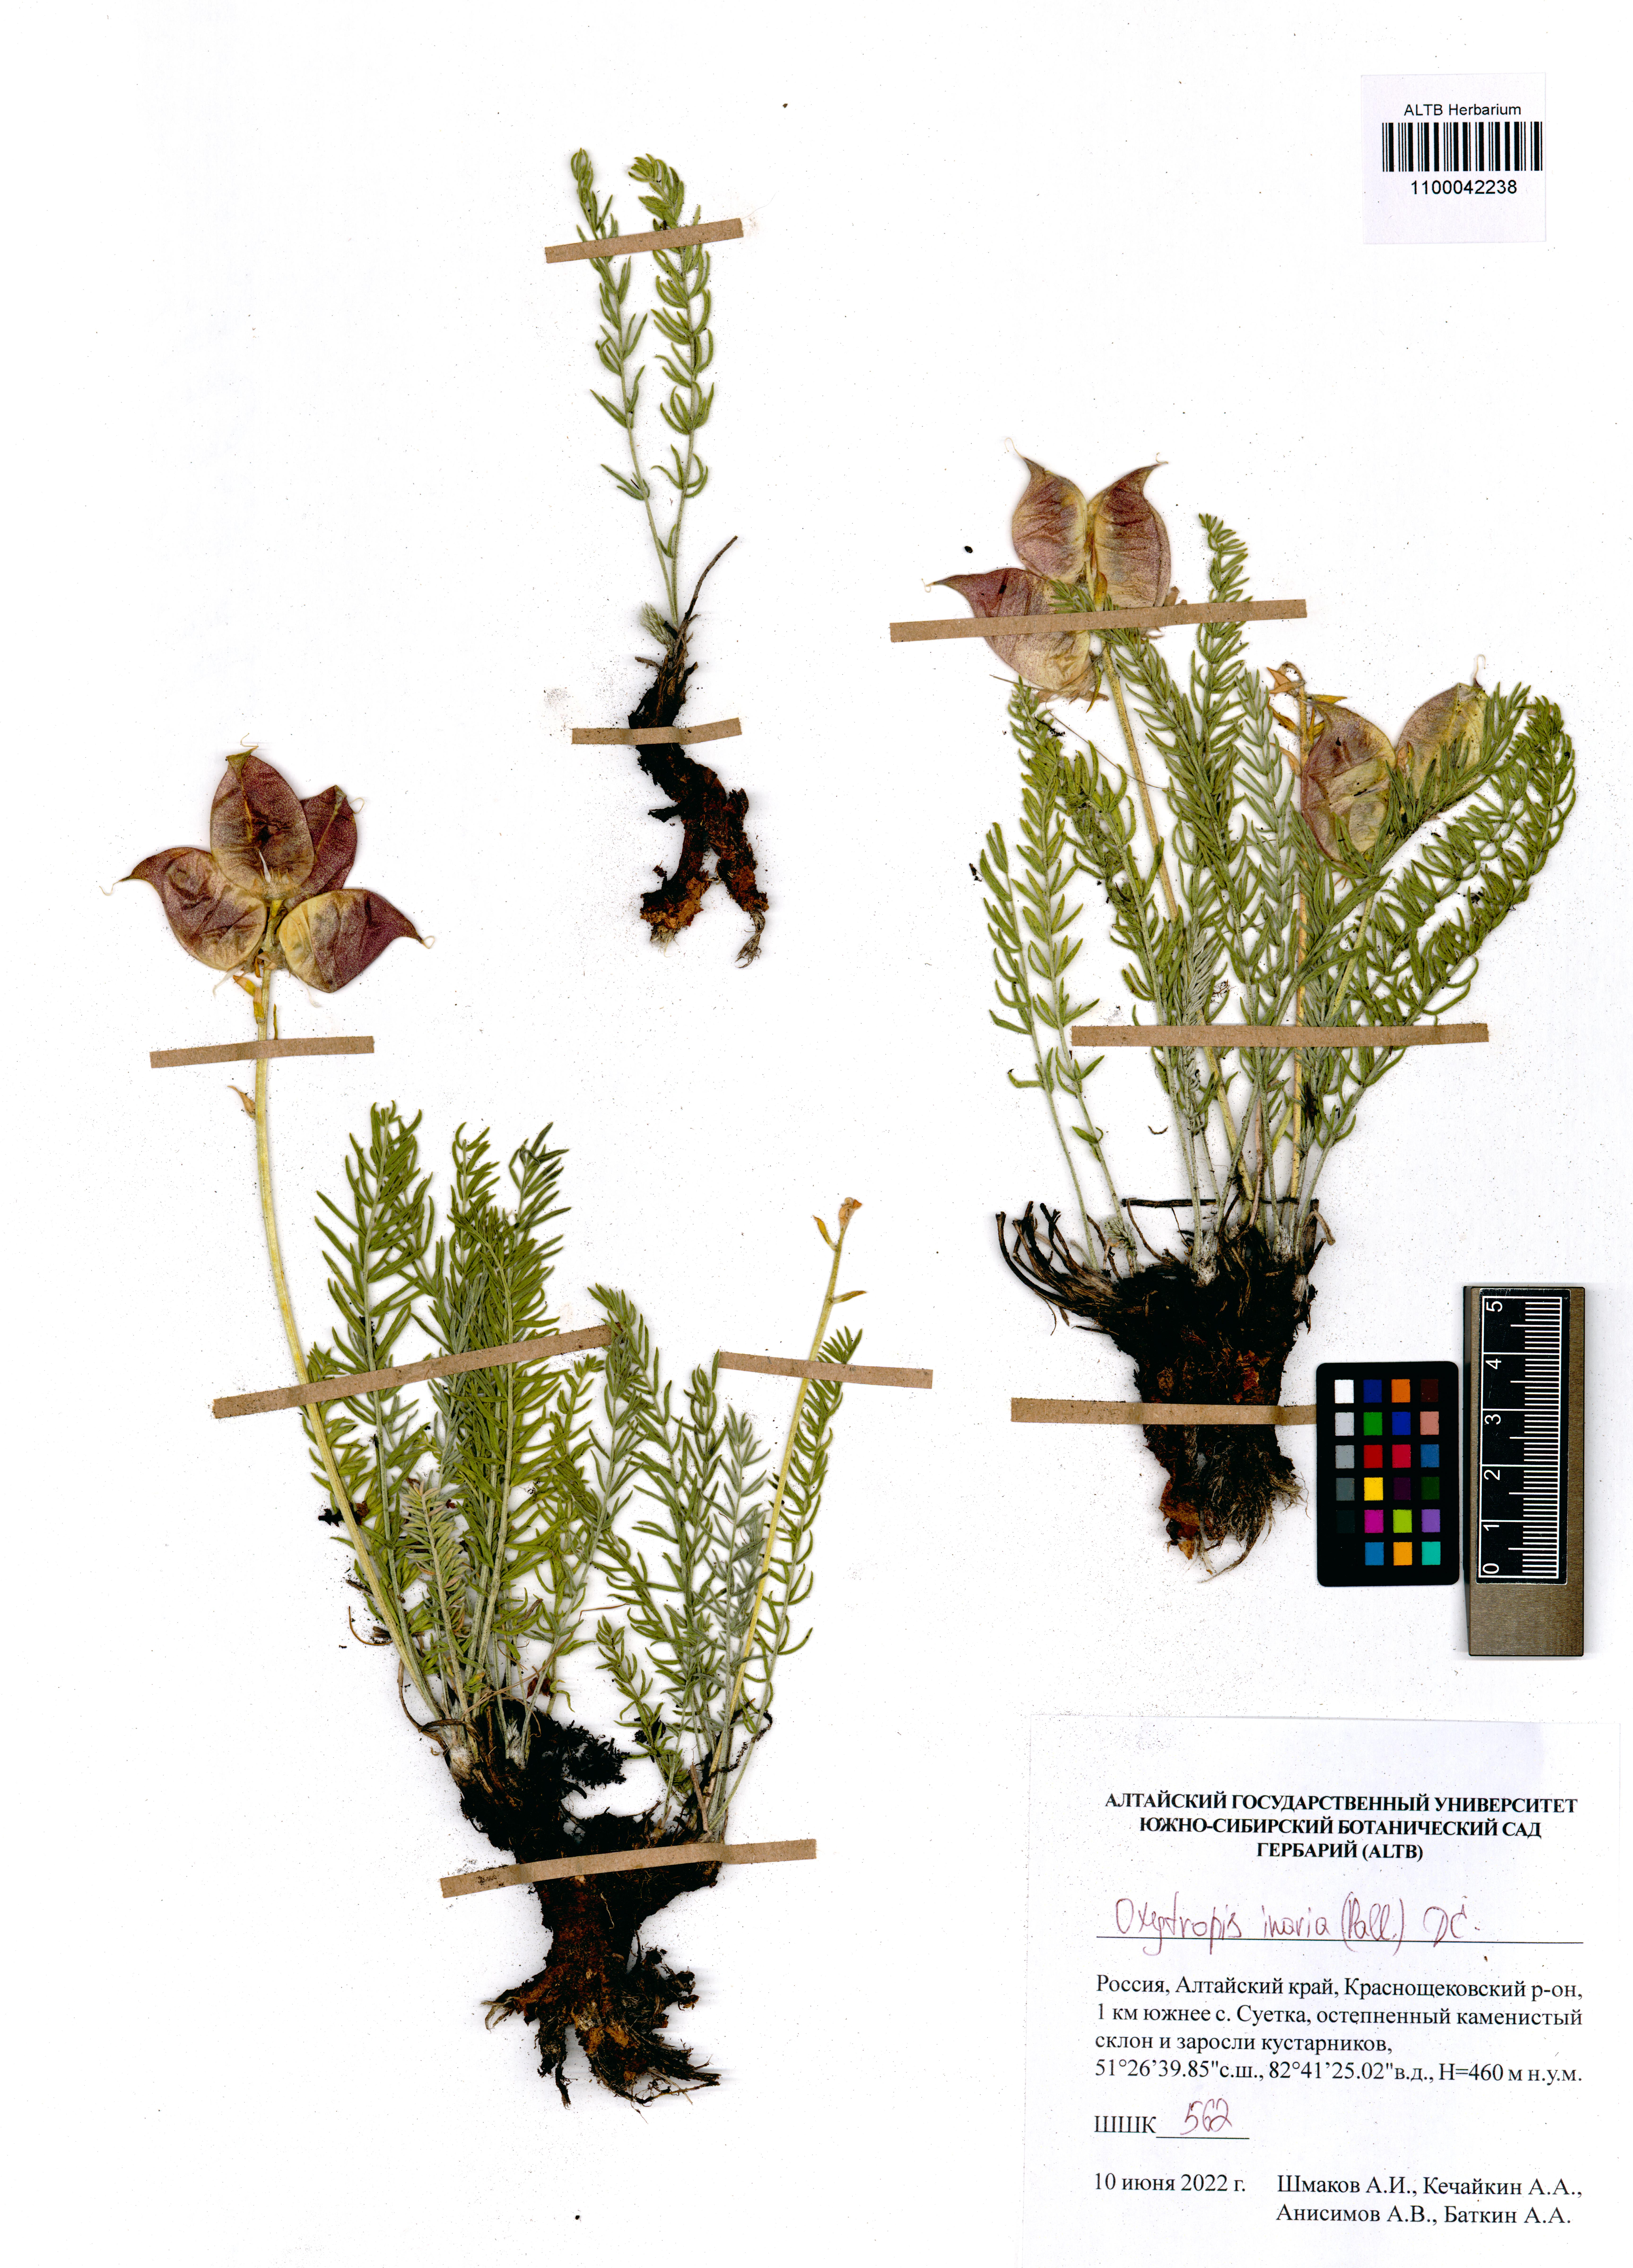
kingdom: Plantae
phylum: Tracheophyta
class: Magnoliopsida
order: Fabales
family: Fabaceae
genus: Oxytropis
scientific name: Oxytropis inaria
